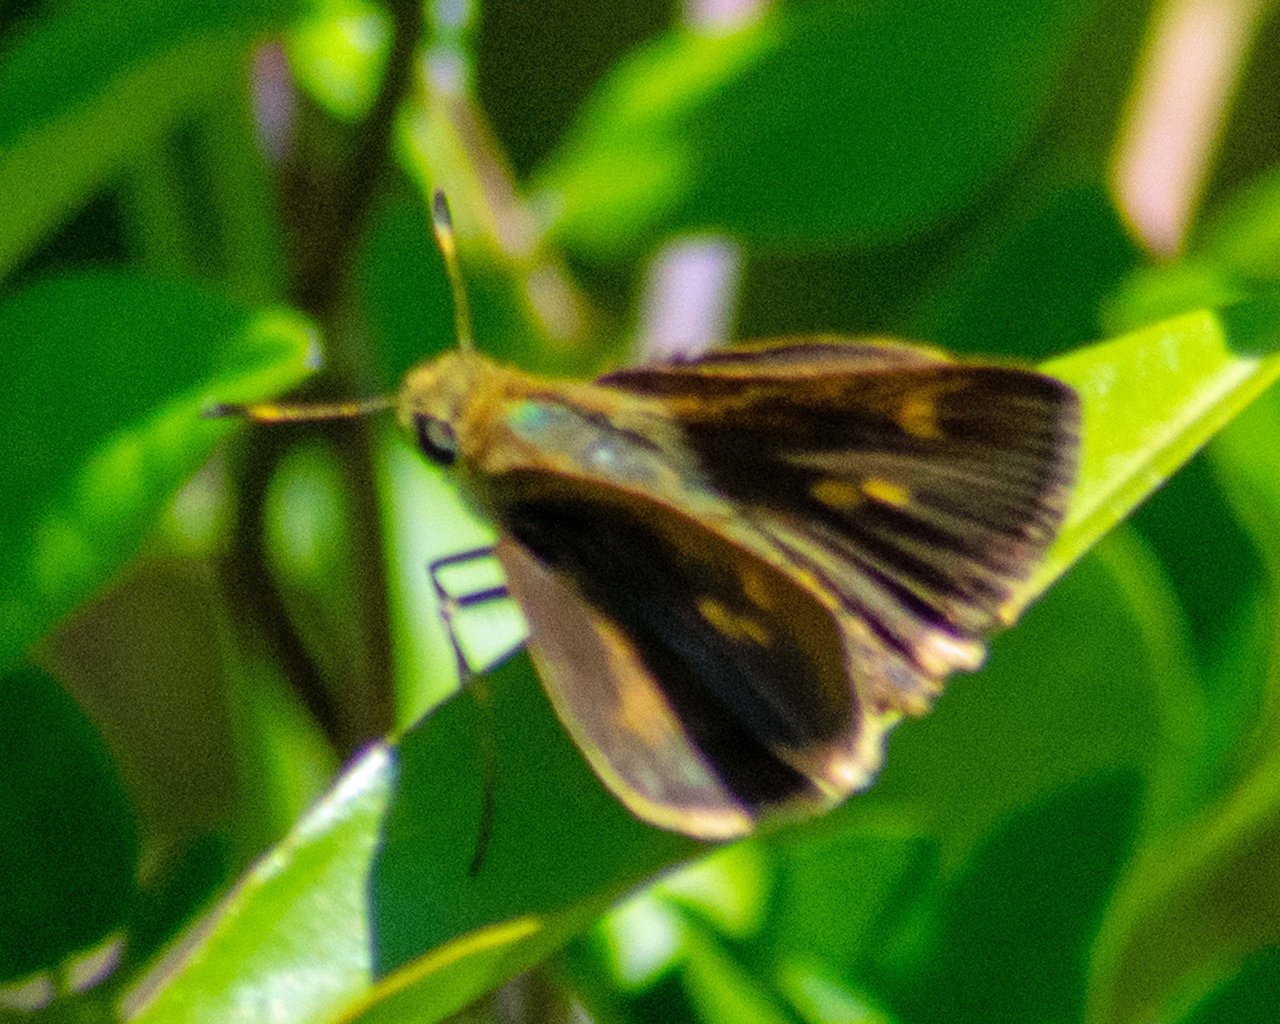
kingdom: Animalia
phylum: Arthropoda
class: Insecta
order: Lepidoptera
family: Hesperiidae
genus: Polites
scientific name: Polites vibex
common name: Whirlabout
